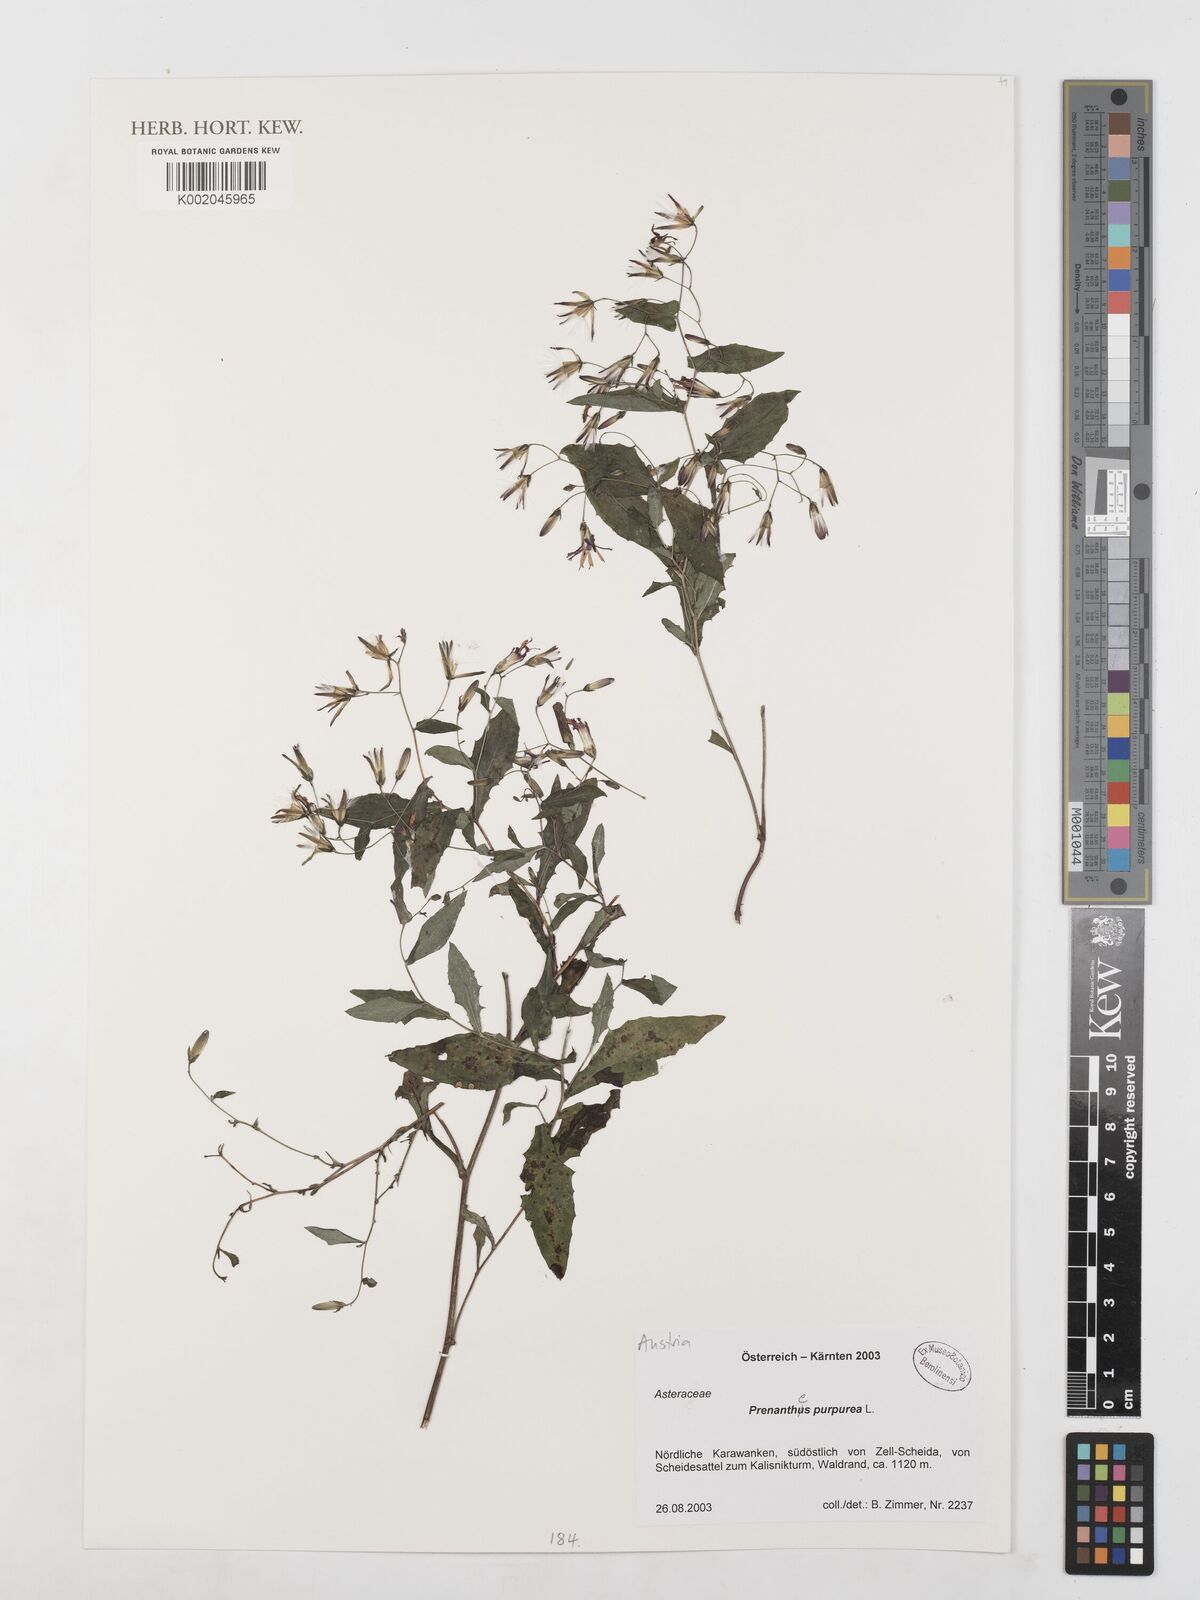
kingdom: Plantae
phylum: Tracheophyta
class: Magnoliopsida
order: Asterales
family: Asteraceae
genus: Prenanthes
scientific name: Prenanthes purpurea
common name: Purple lettuce
